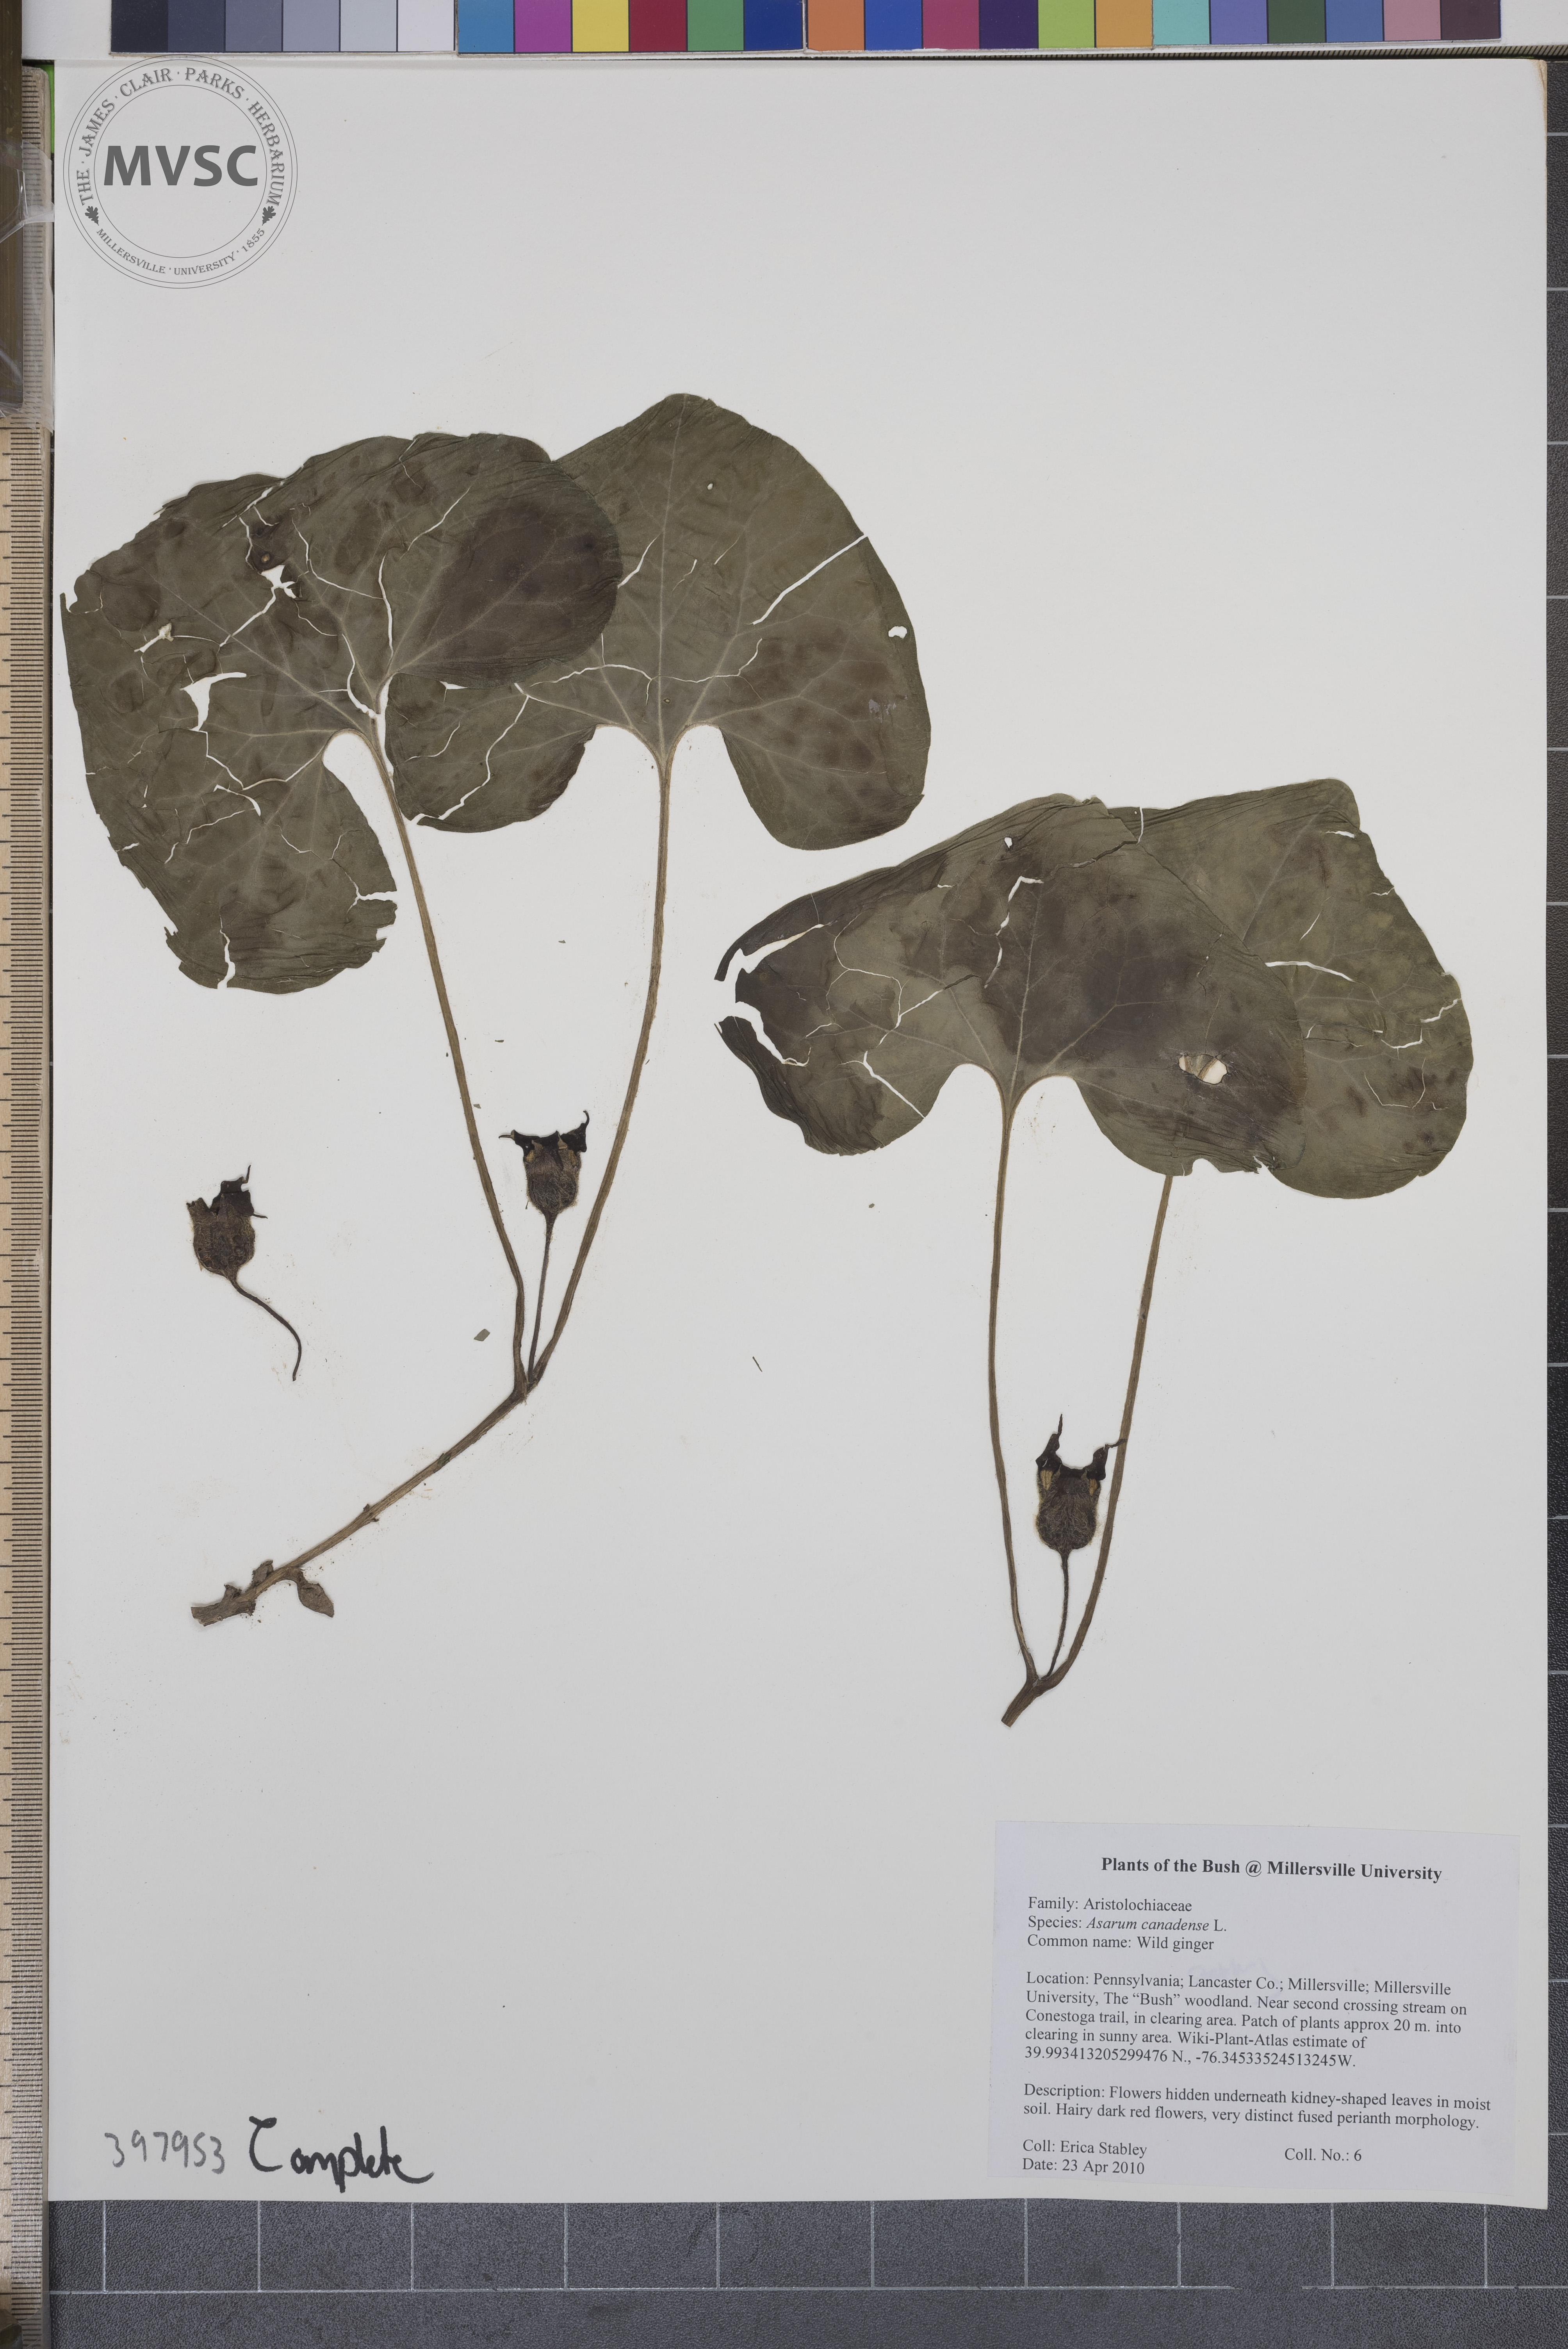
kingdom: Plantae
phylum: Tracheophyta
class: Magnoliopsida
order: Piperales
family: Aristolochiaceae
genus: Asarum
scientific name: Asarum canadense
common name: Wild ginger
